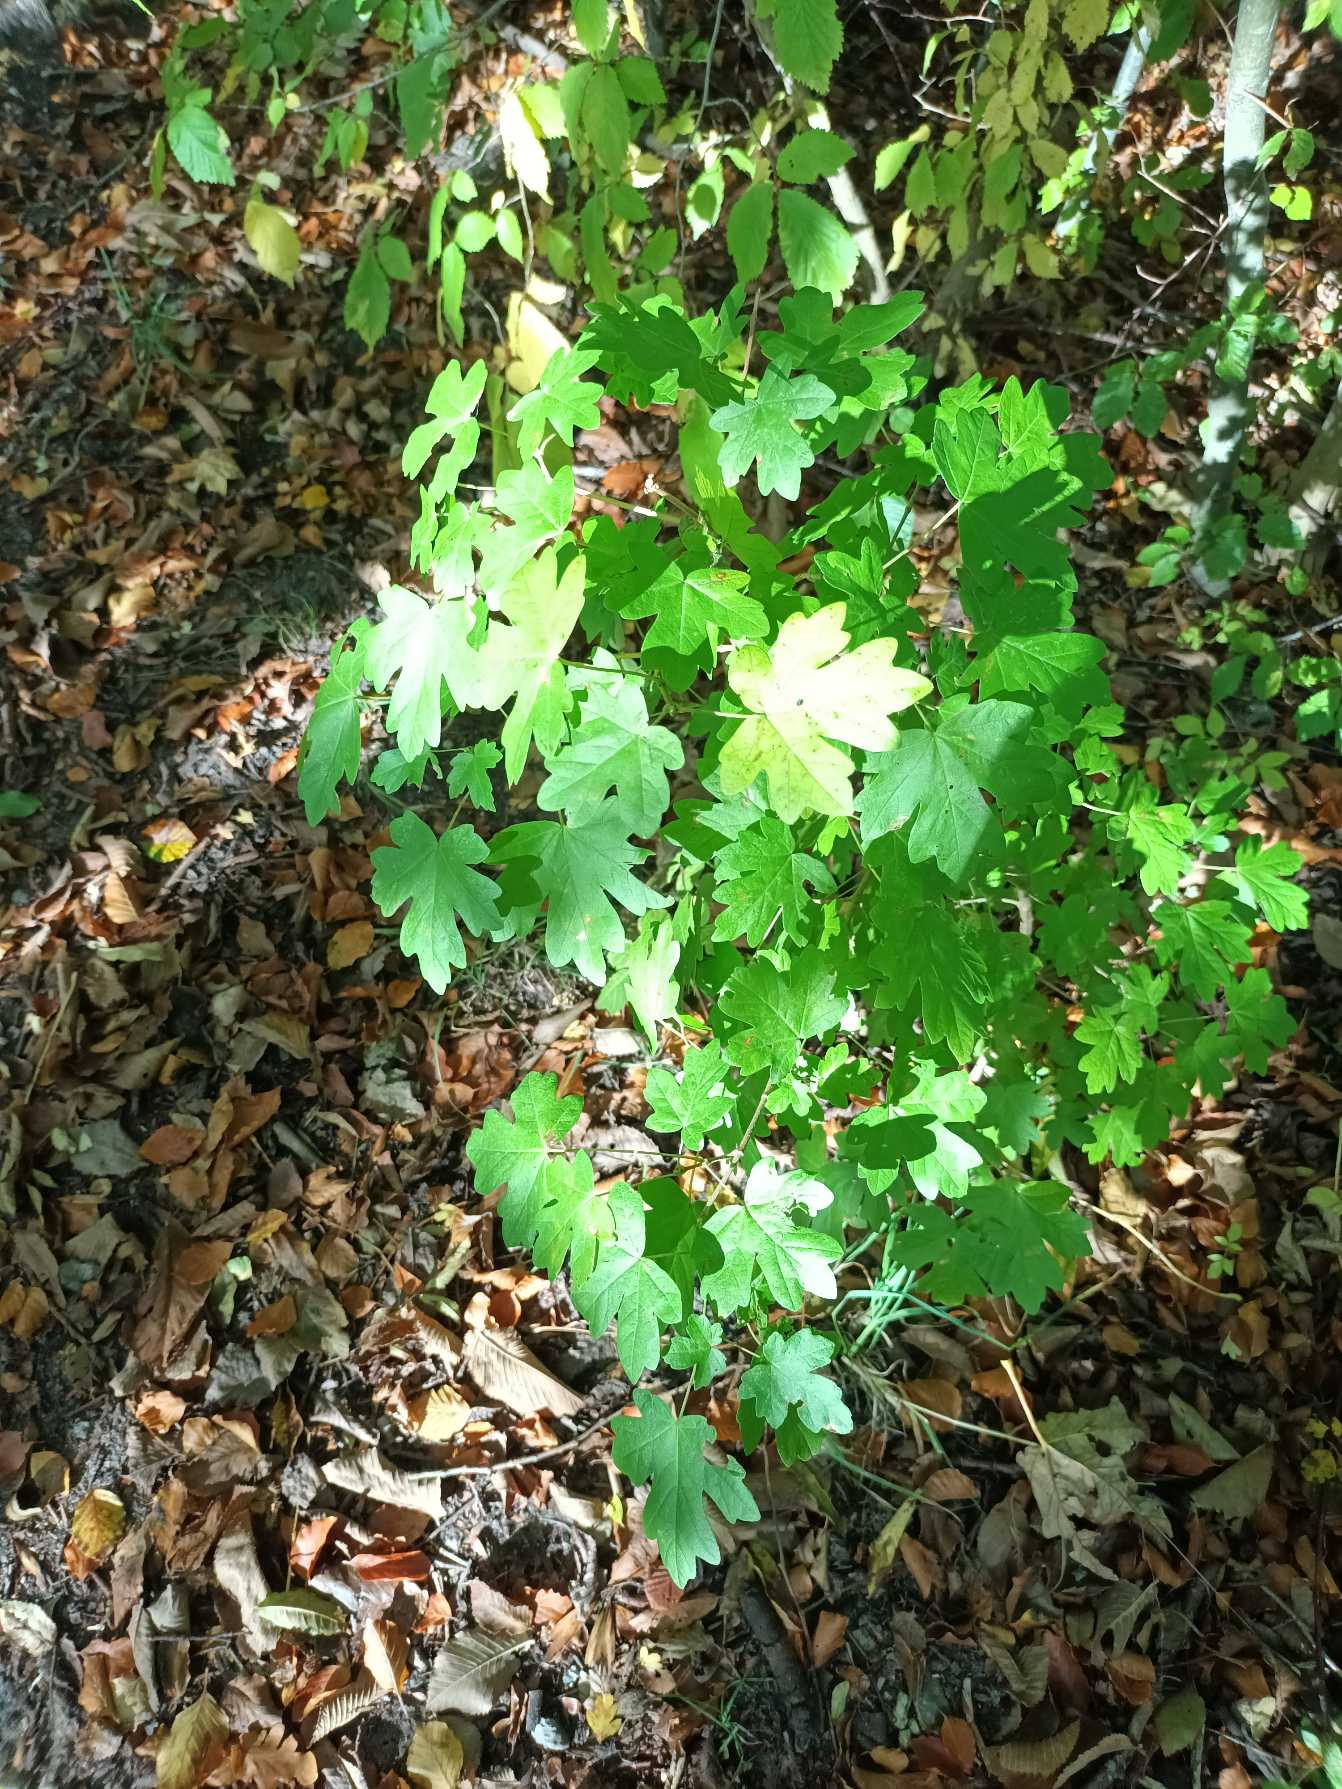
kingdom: Plantae
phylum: Tracheophyta
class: Magnoliopsida
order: Sapindales
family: Sapindaceae
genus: Acer
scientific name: Acer campestre
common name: Navr
